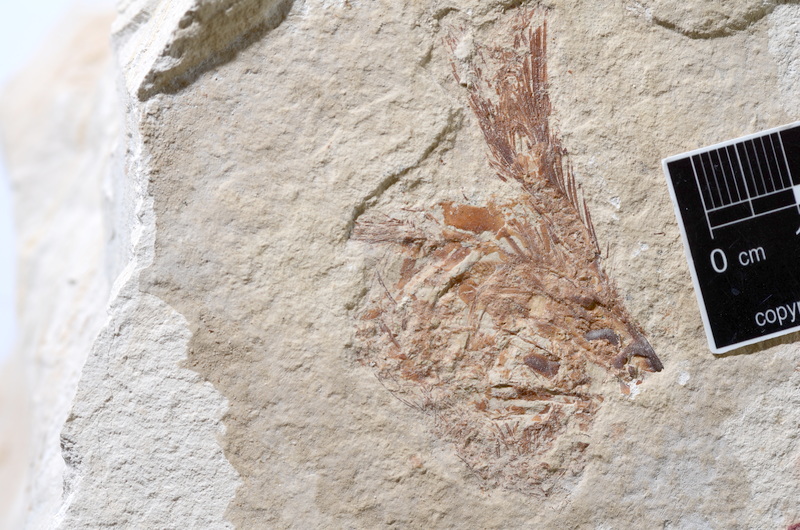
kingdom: Animalia
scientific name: Animalia
